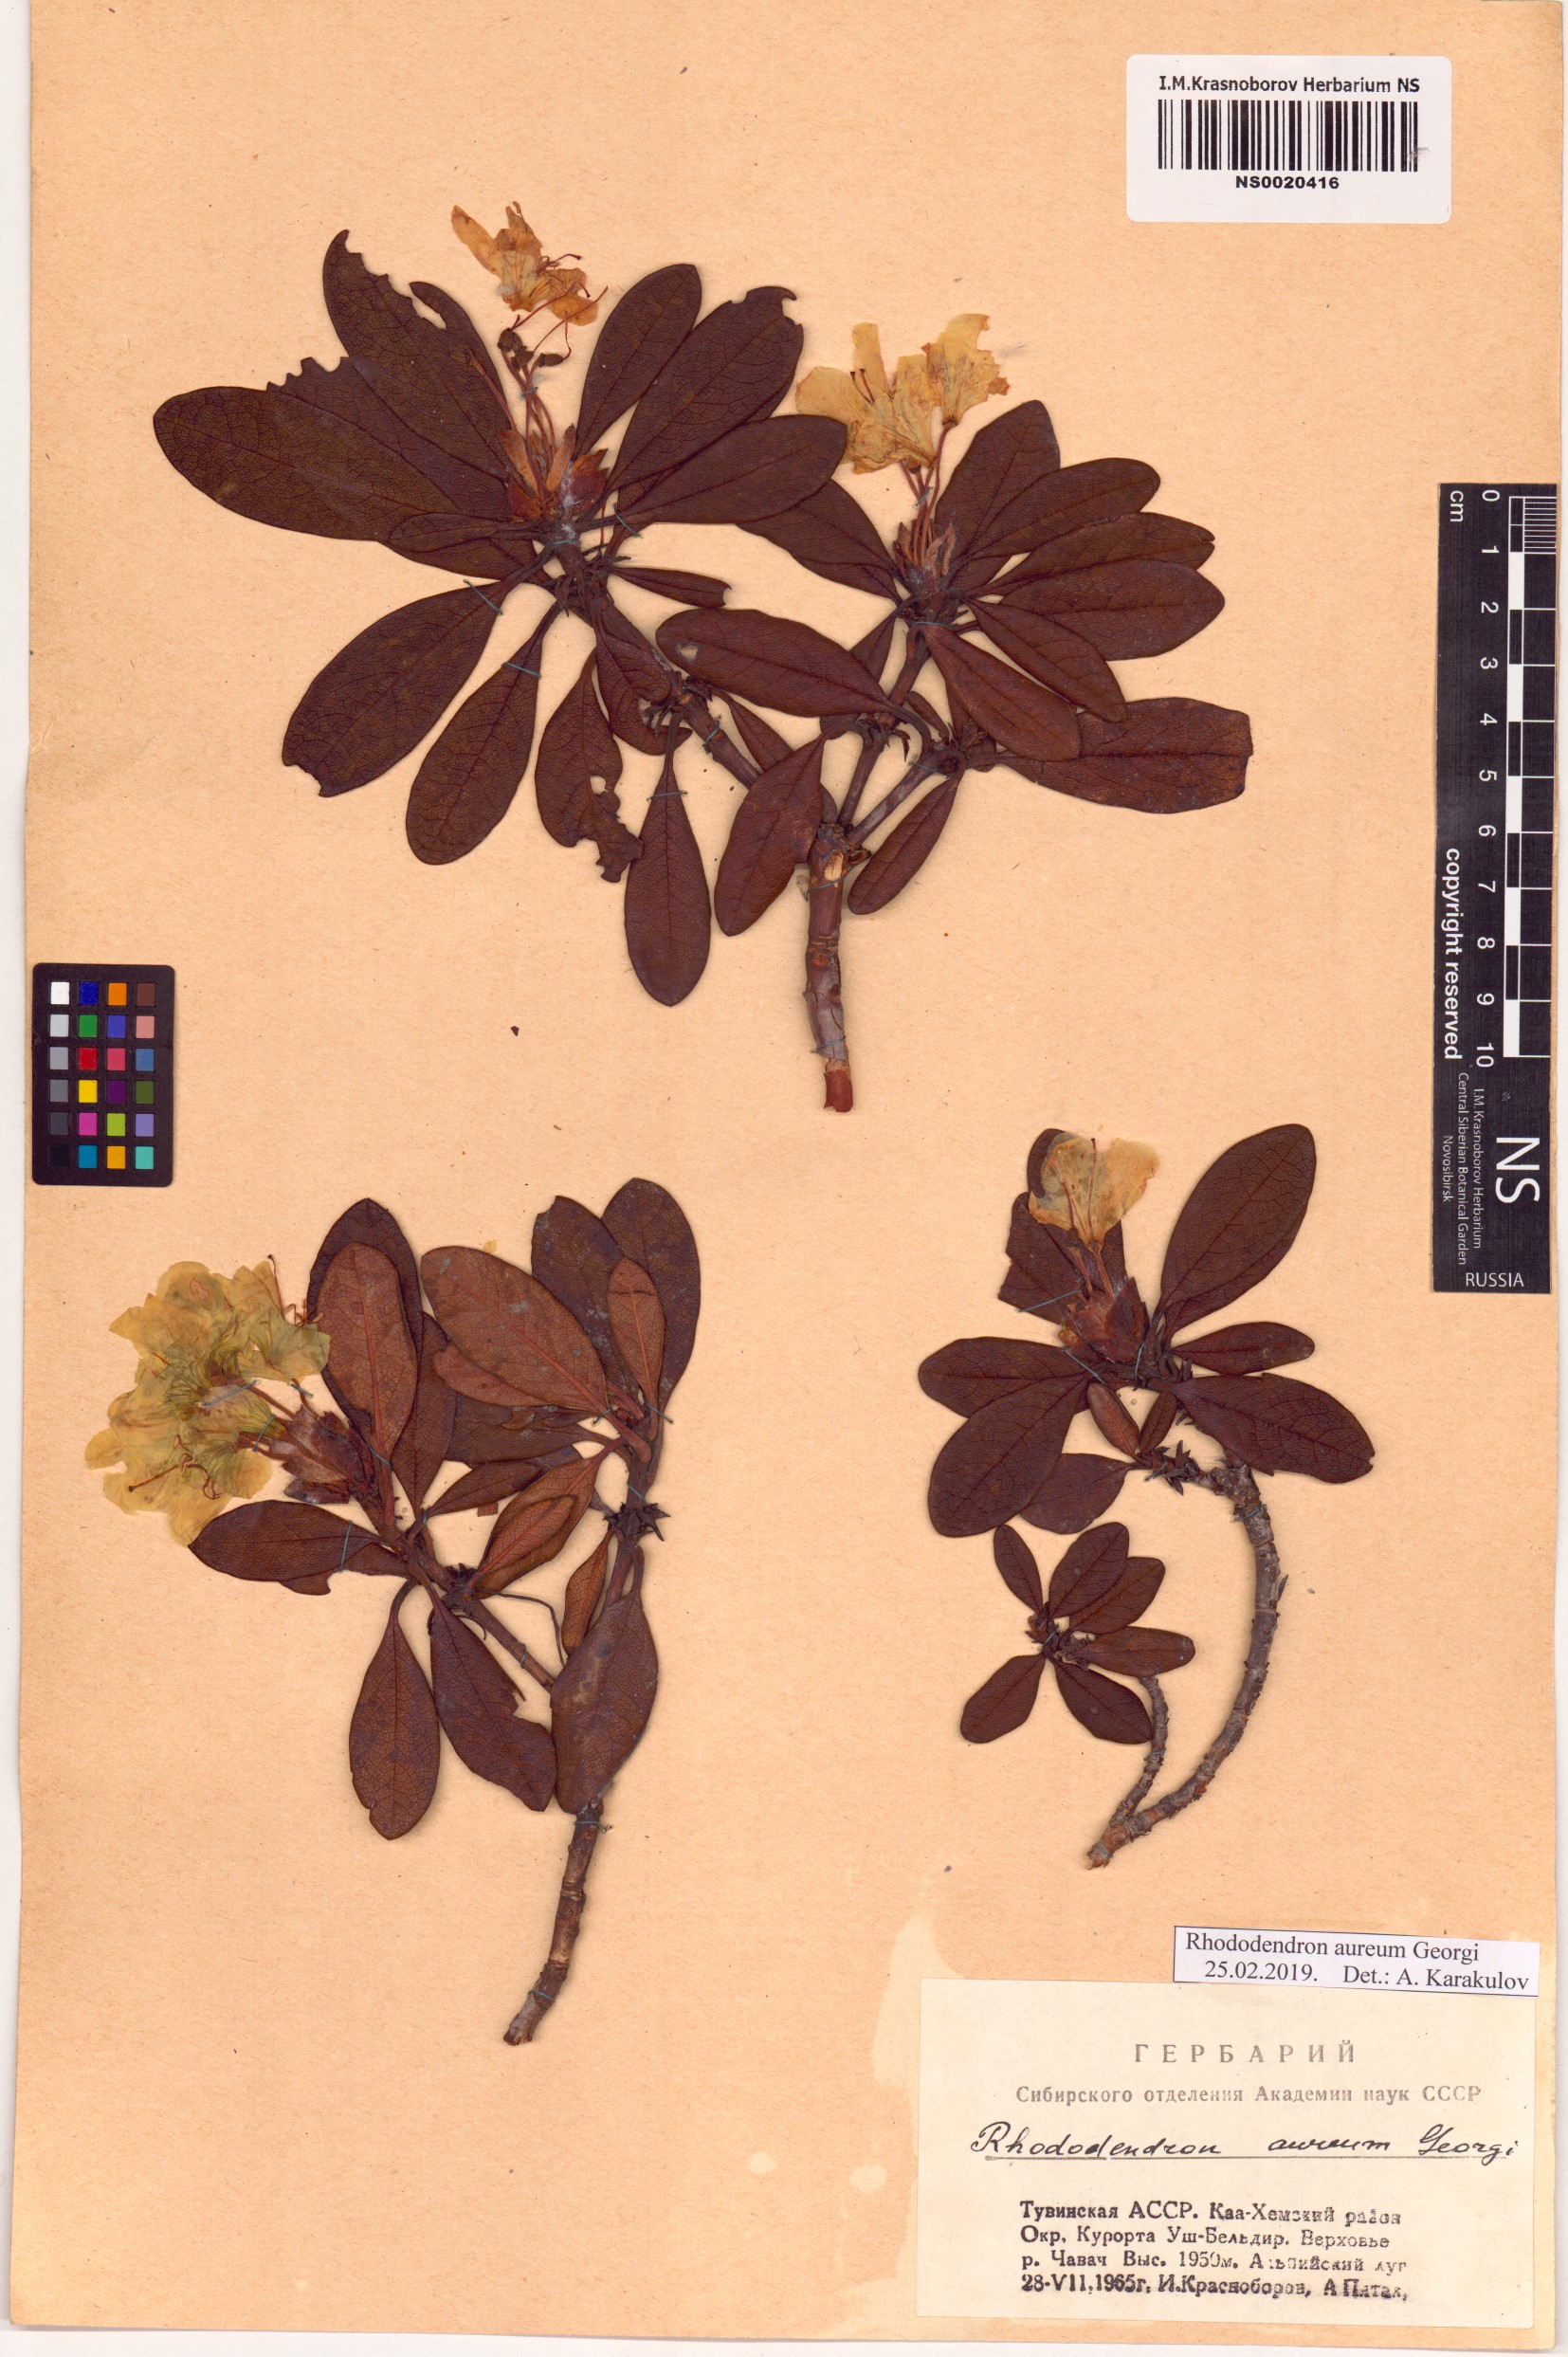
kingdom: Plantae
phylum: Tracheophyta
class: Magnoliopsida
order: Ericales
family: Ericaceae
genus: Rhododendron
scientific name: Rhododendron aureum
